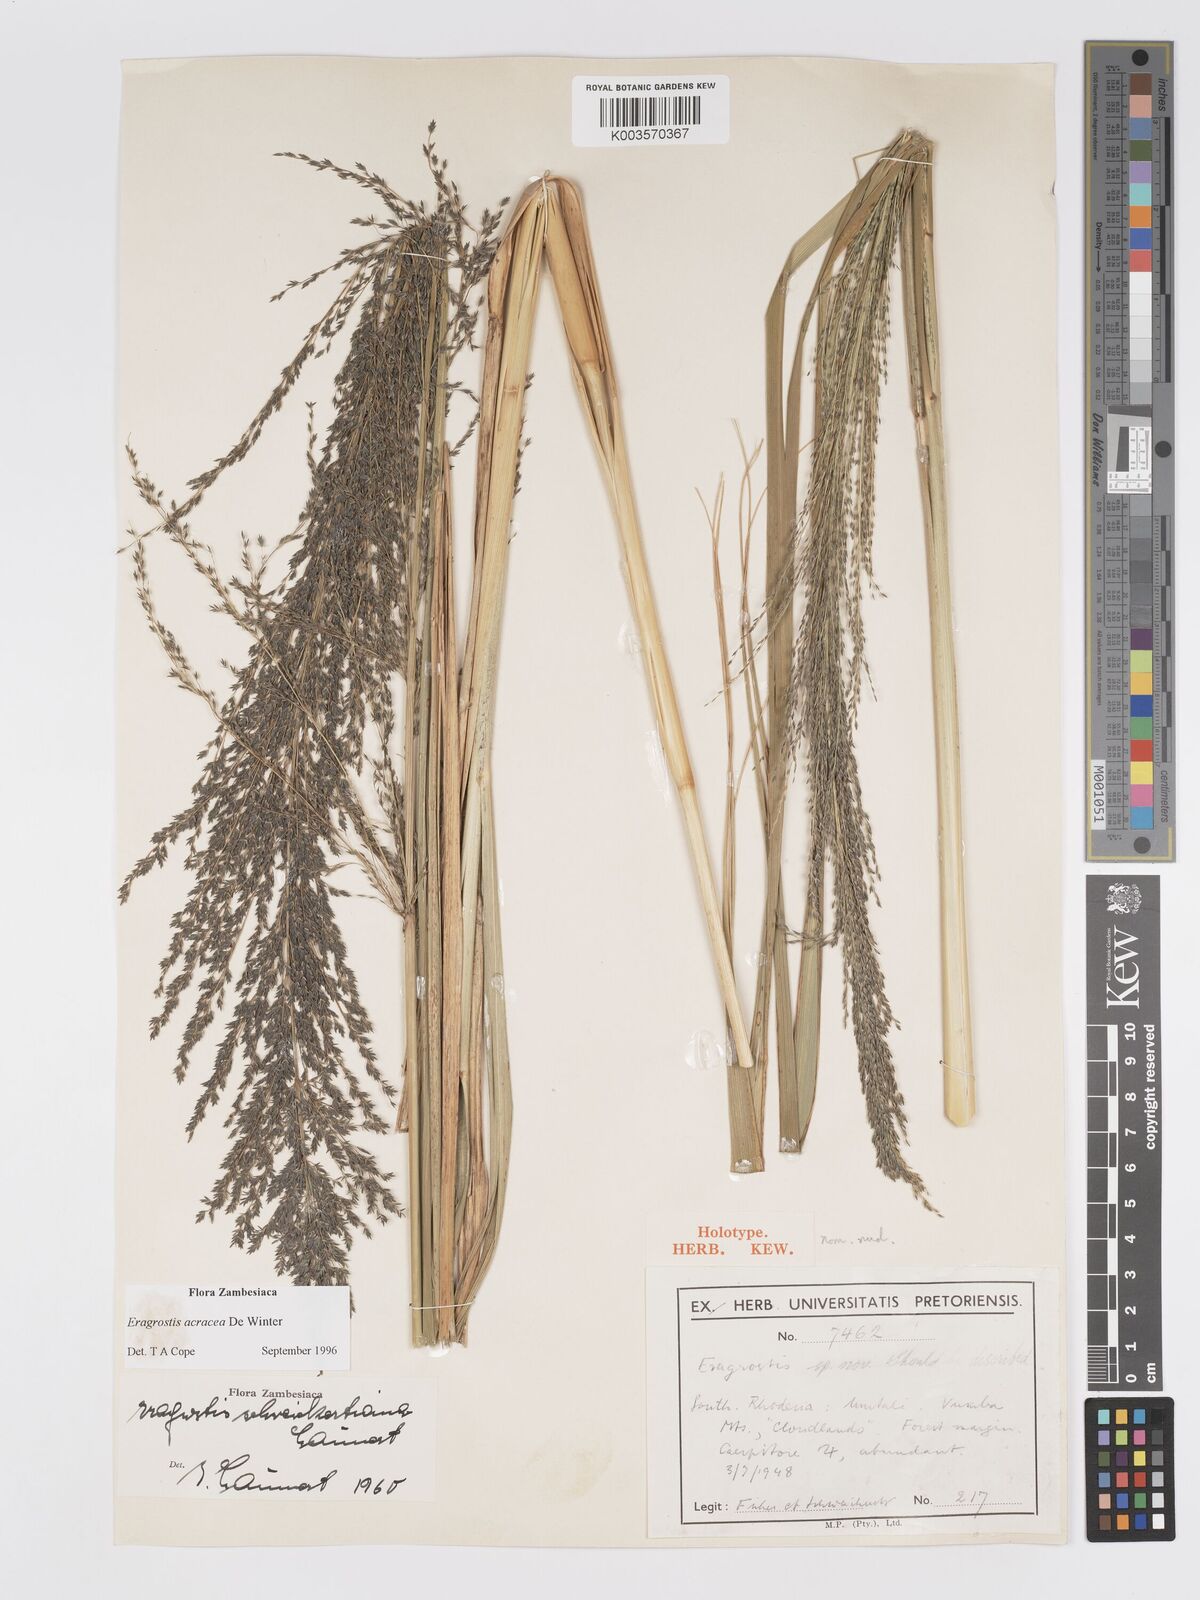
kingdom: Plantae
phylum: Tracheophyta
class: Liliopsida
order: Poales
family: Poaceae
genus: Eragrostis
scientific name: Eragrostis acraea
